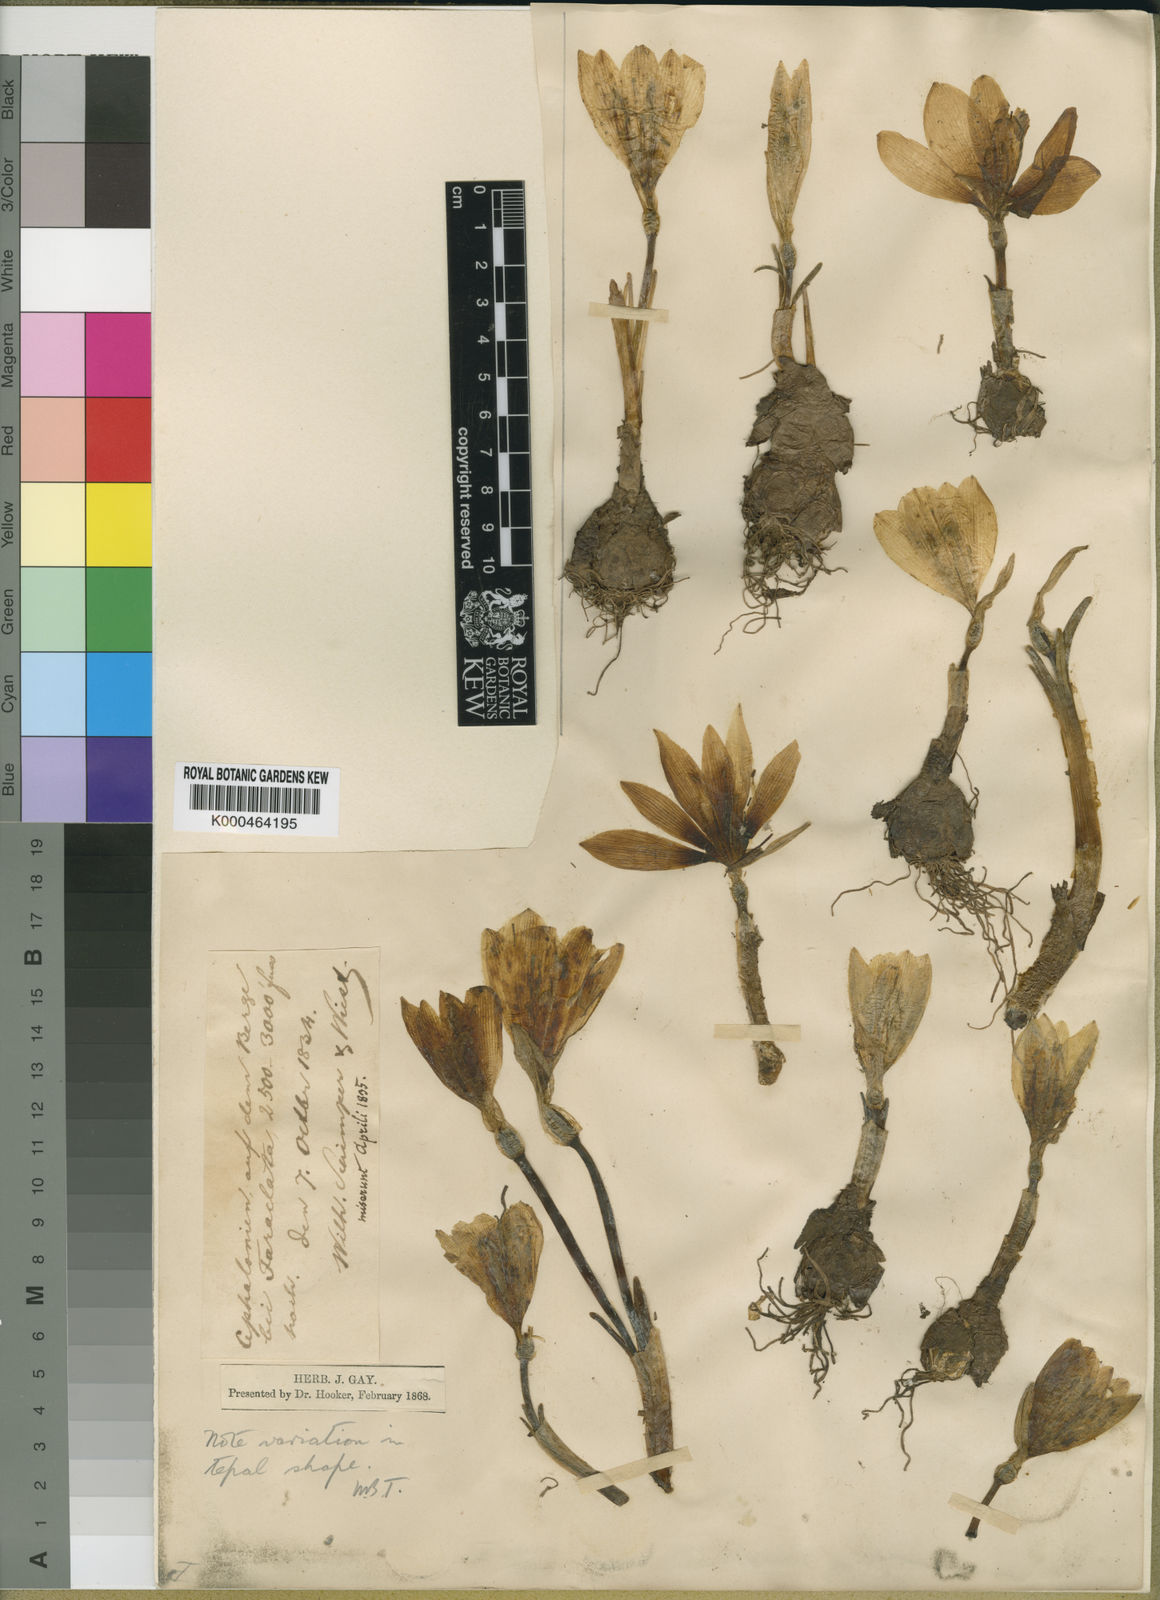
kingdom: Plantae
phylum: Tracheophyta
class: Liliopsida
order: Asparagales
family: Amaryllidaceae
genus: Sternbergia
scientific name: Sternbergia
